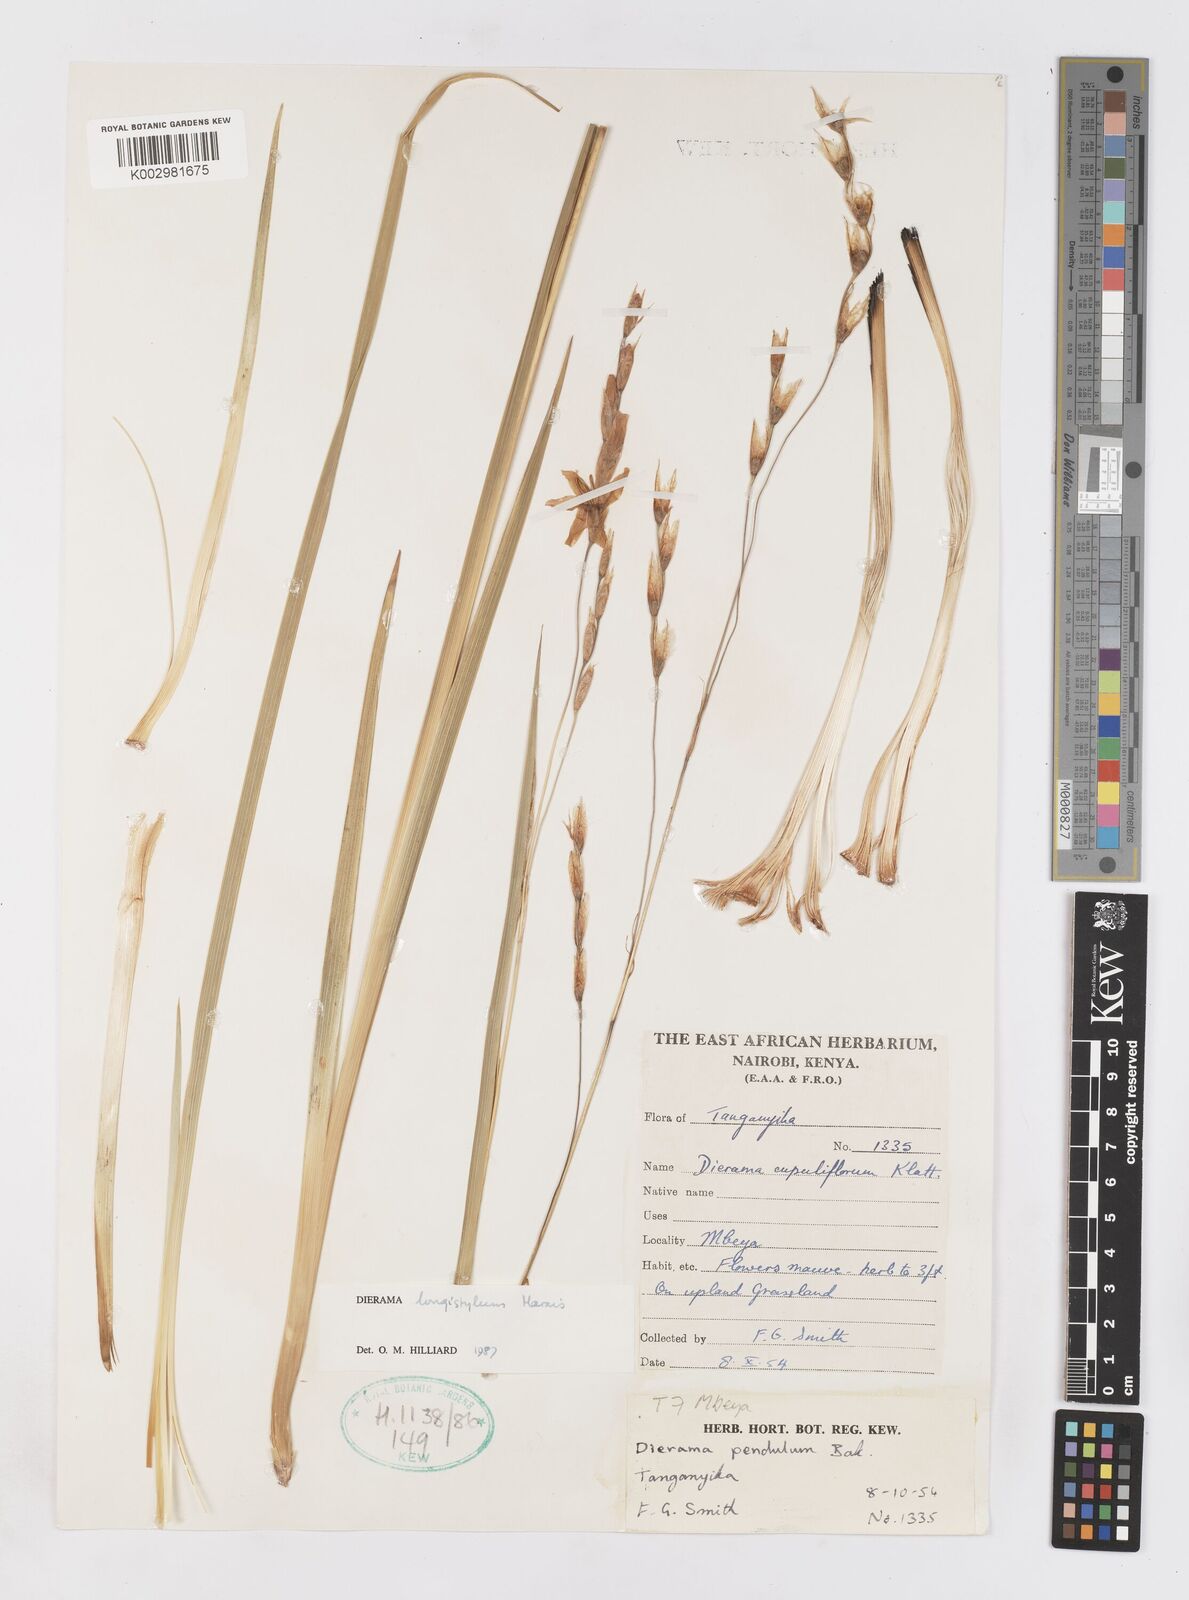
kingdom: Plantae
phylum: Tracheophyta
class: Liliopsida
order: Asparagales
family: Iridaceae
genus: Dierama
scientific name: Dierama longistylum
